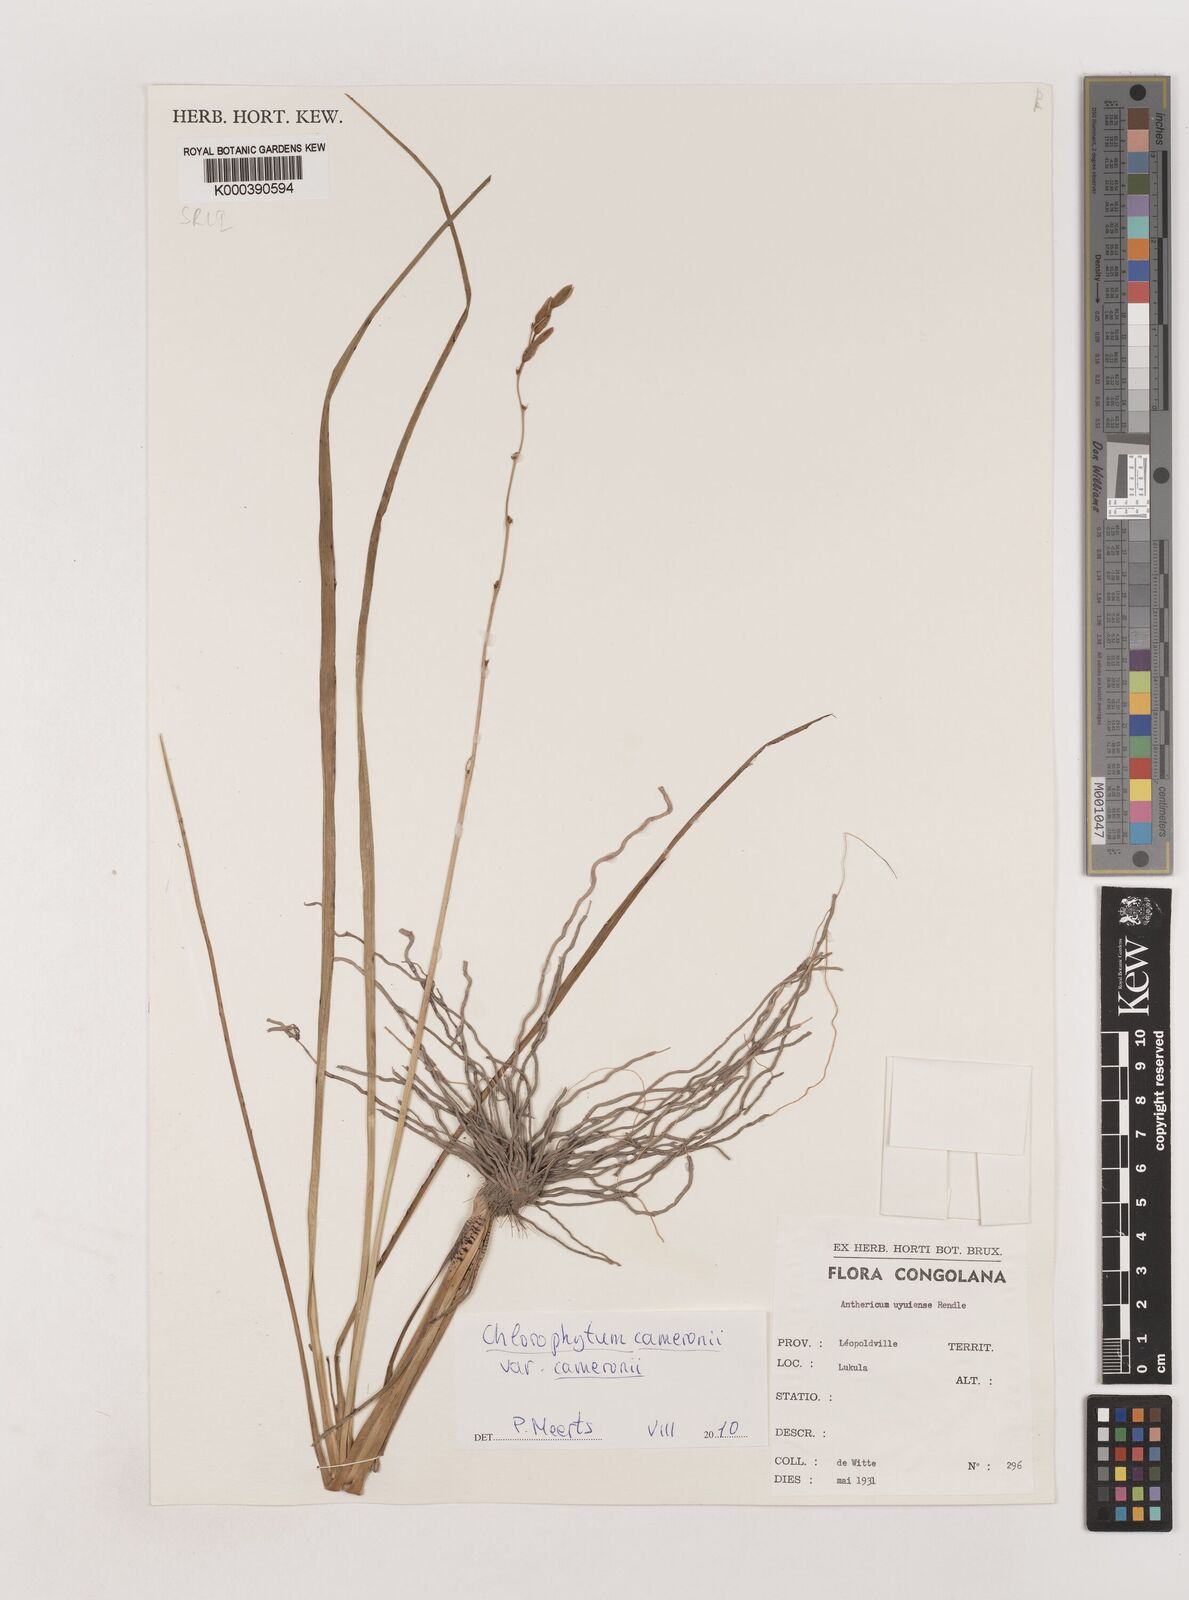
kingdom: Plantae
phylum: Tracheophyta
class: Liliopsida
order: Asparagales
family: Asparagaceae
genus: Chlorophytum
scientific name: Chlorophytum cameronii
